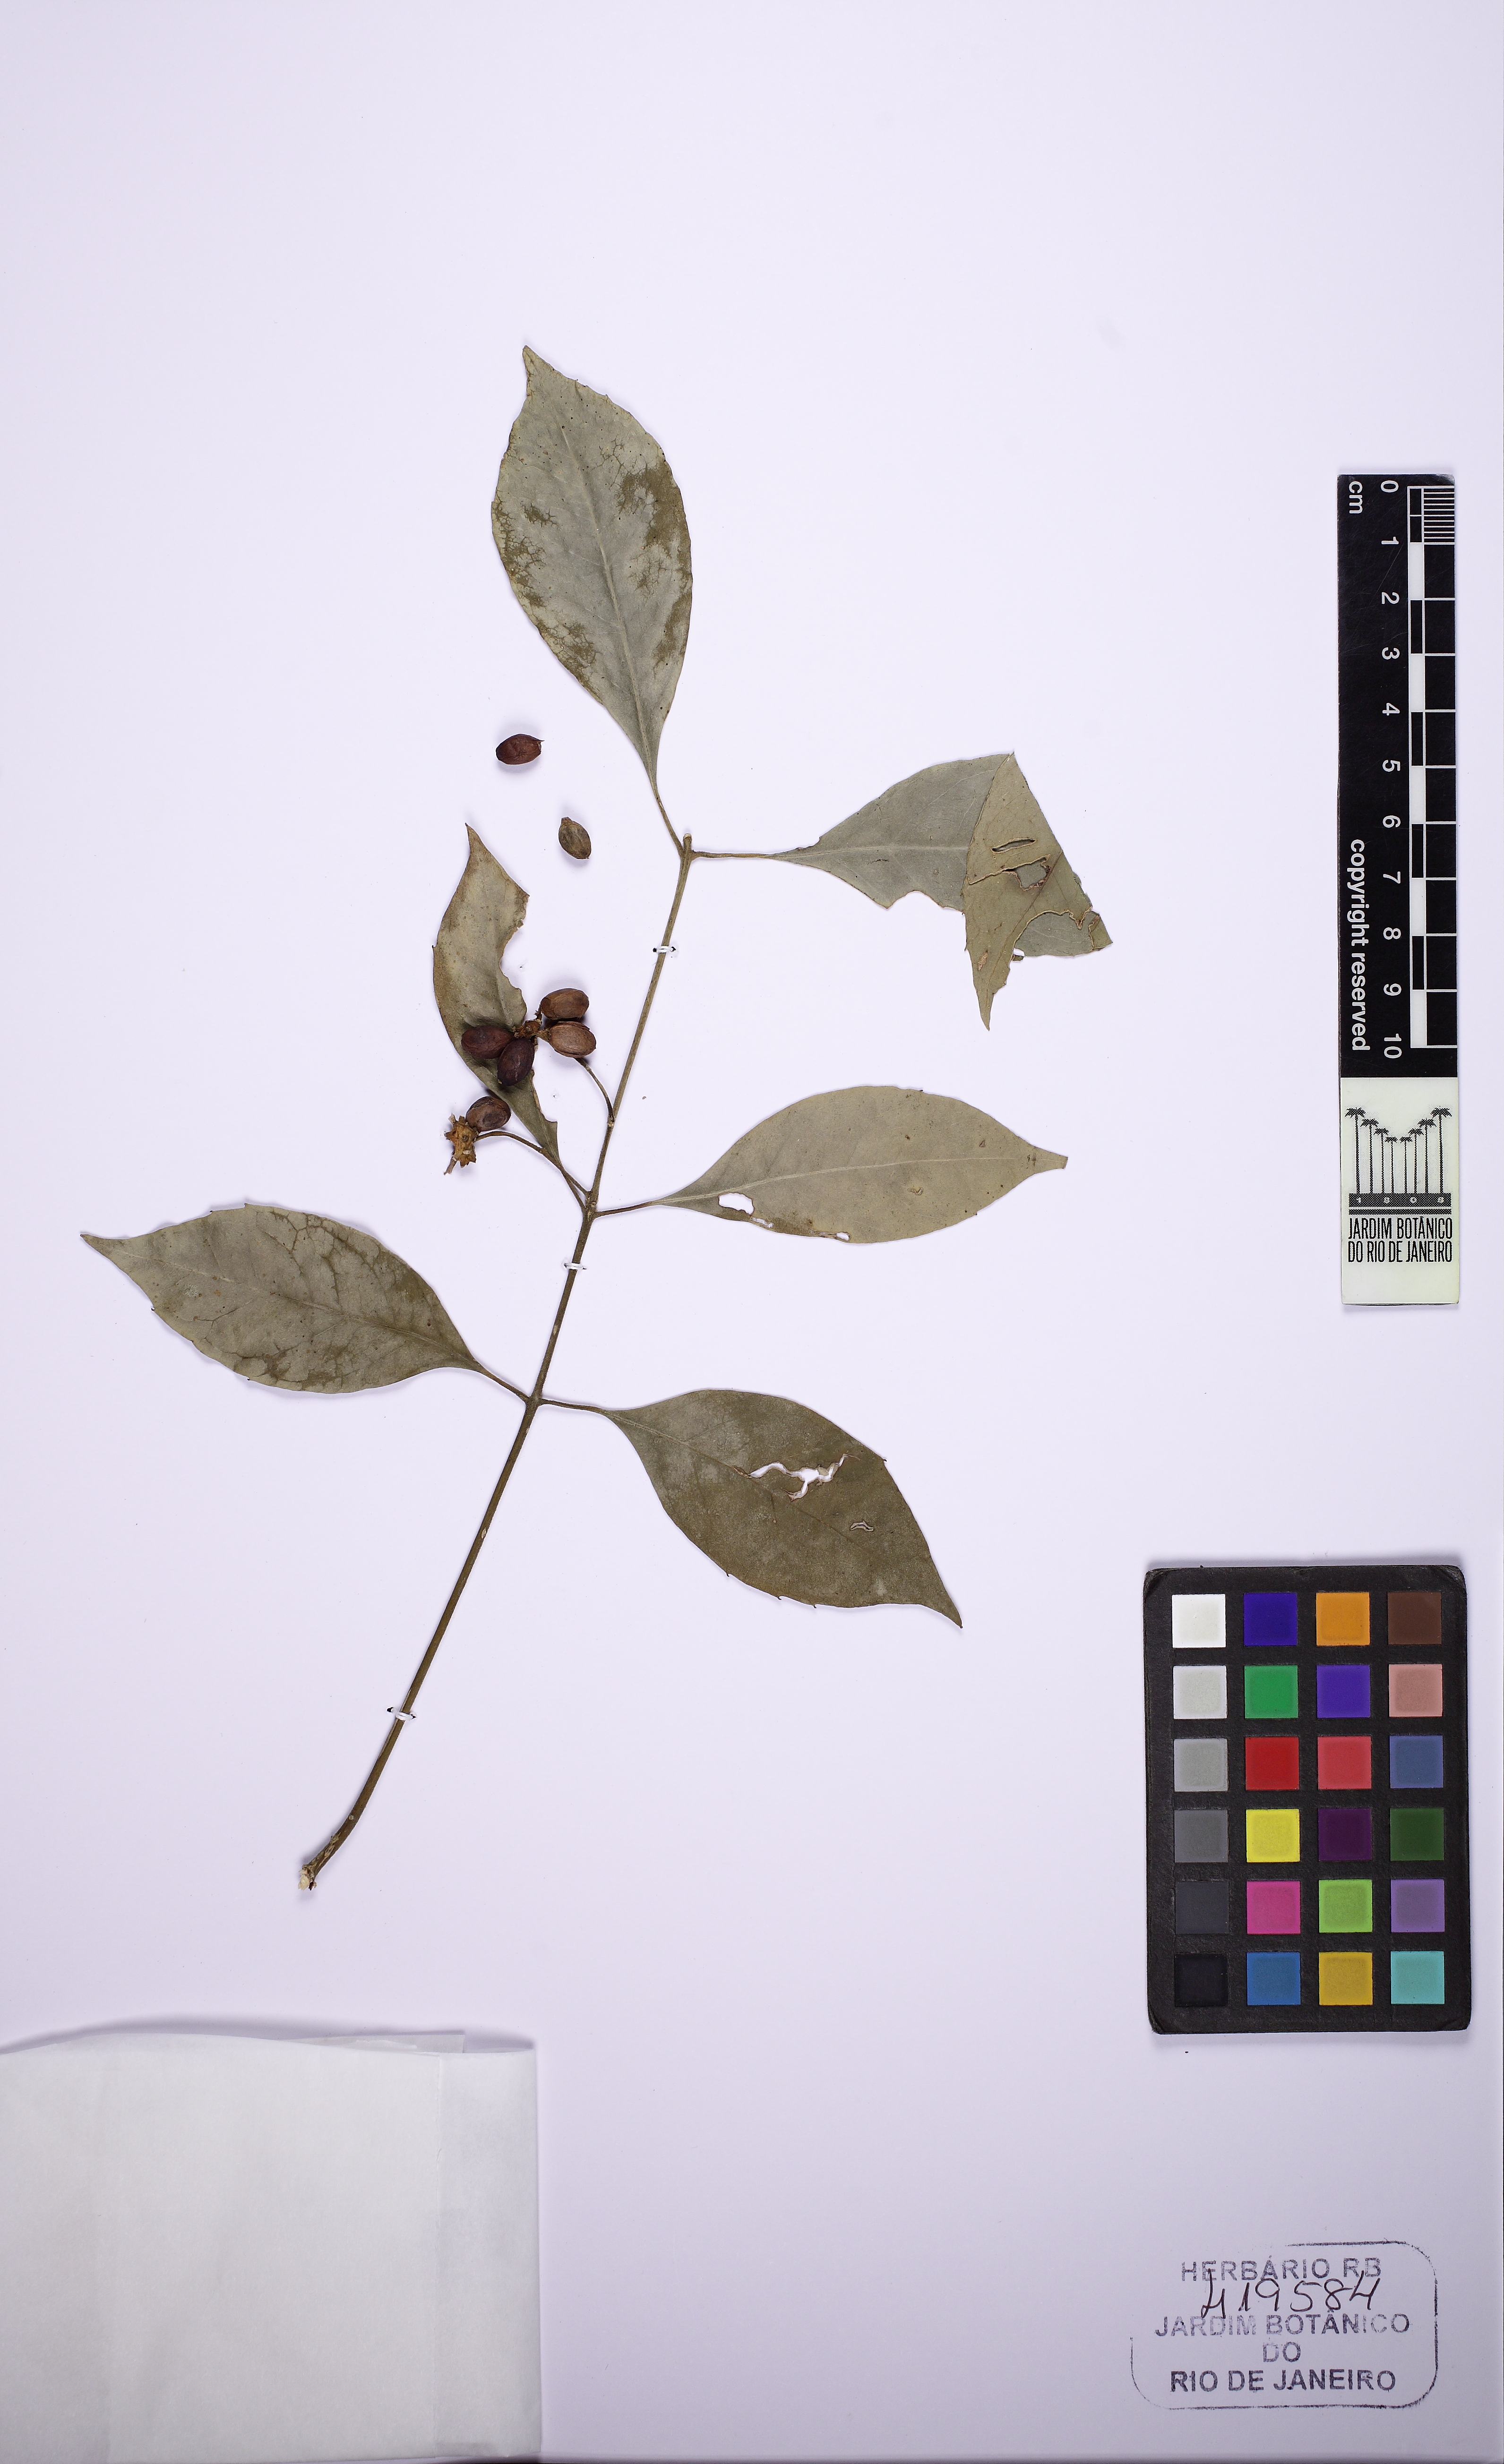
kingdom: Plantae
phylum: Tracheophyta
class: Magnoliopsida
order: Laurales
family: Monimiaceae
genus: Mollinedia
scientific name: Mollinedia triflora
